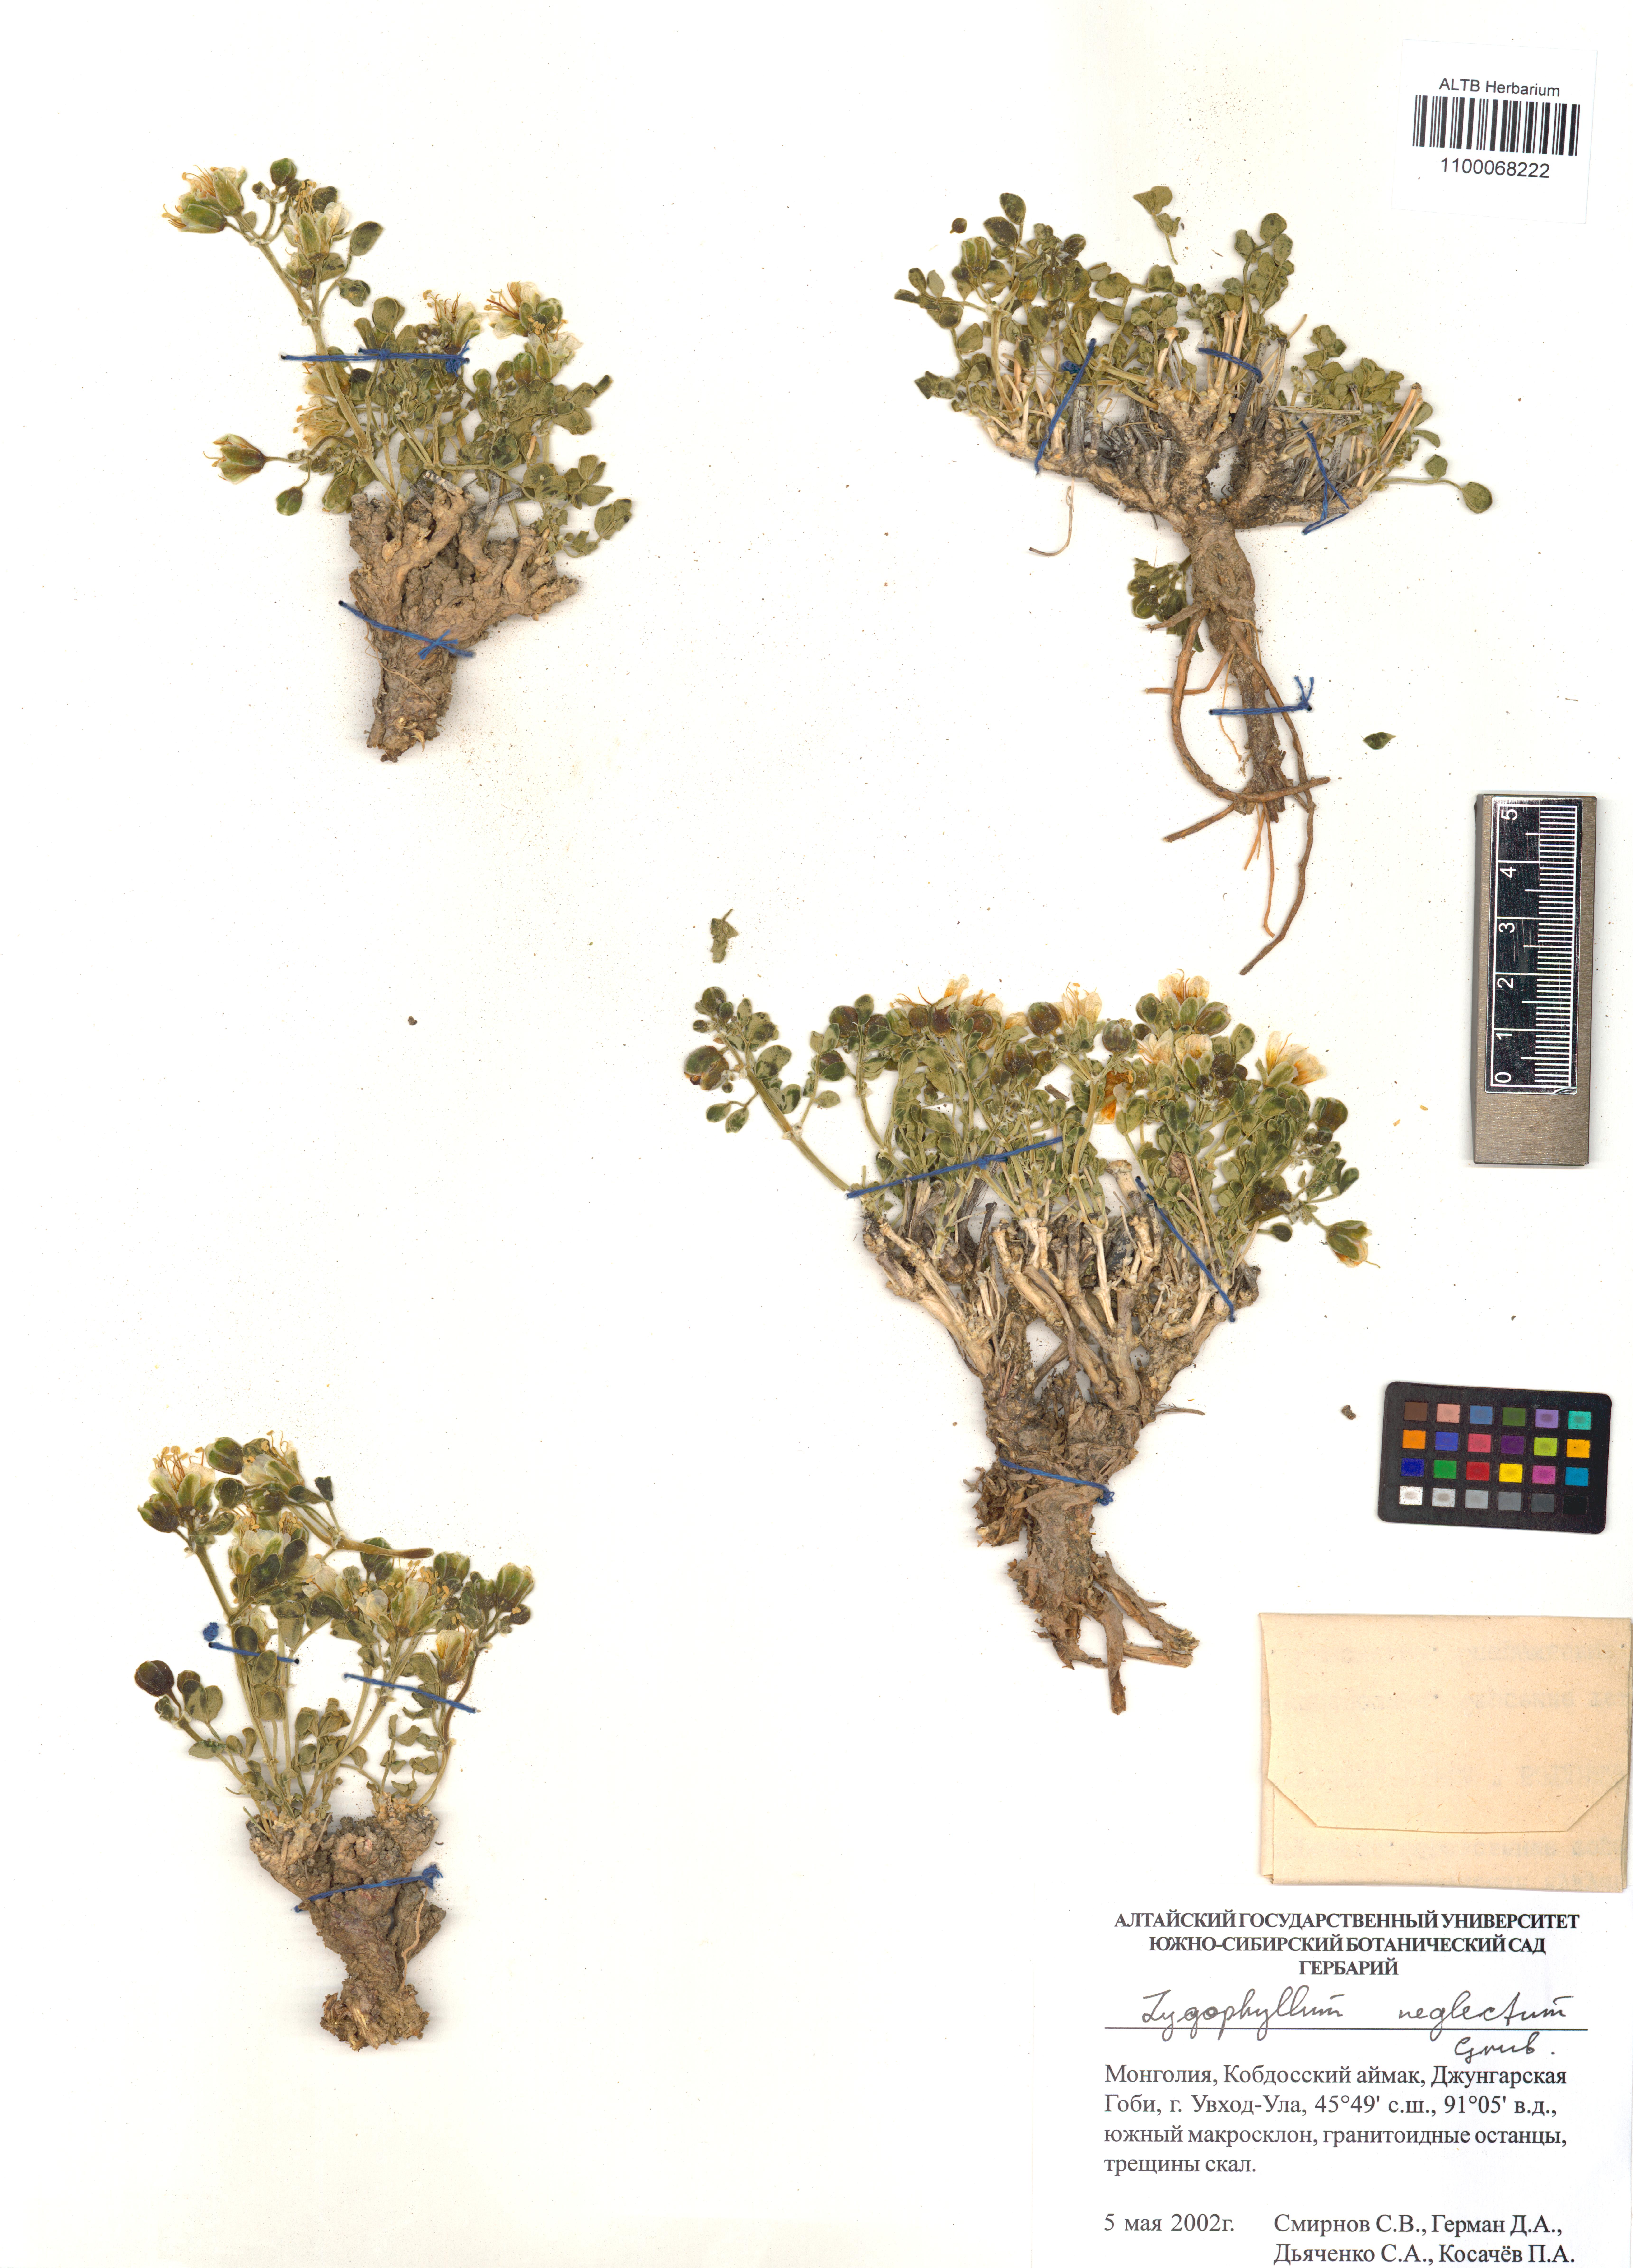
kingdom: Plantae
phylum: Tracheophyta
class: Magnoliopsida
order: Zygophyllales
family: Zygophyllaceae
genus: Zygophyllum
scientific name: Zygophyllum neglectum
